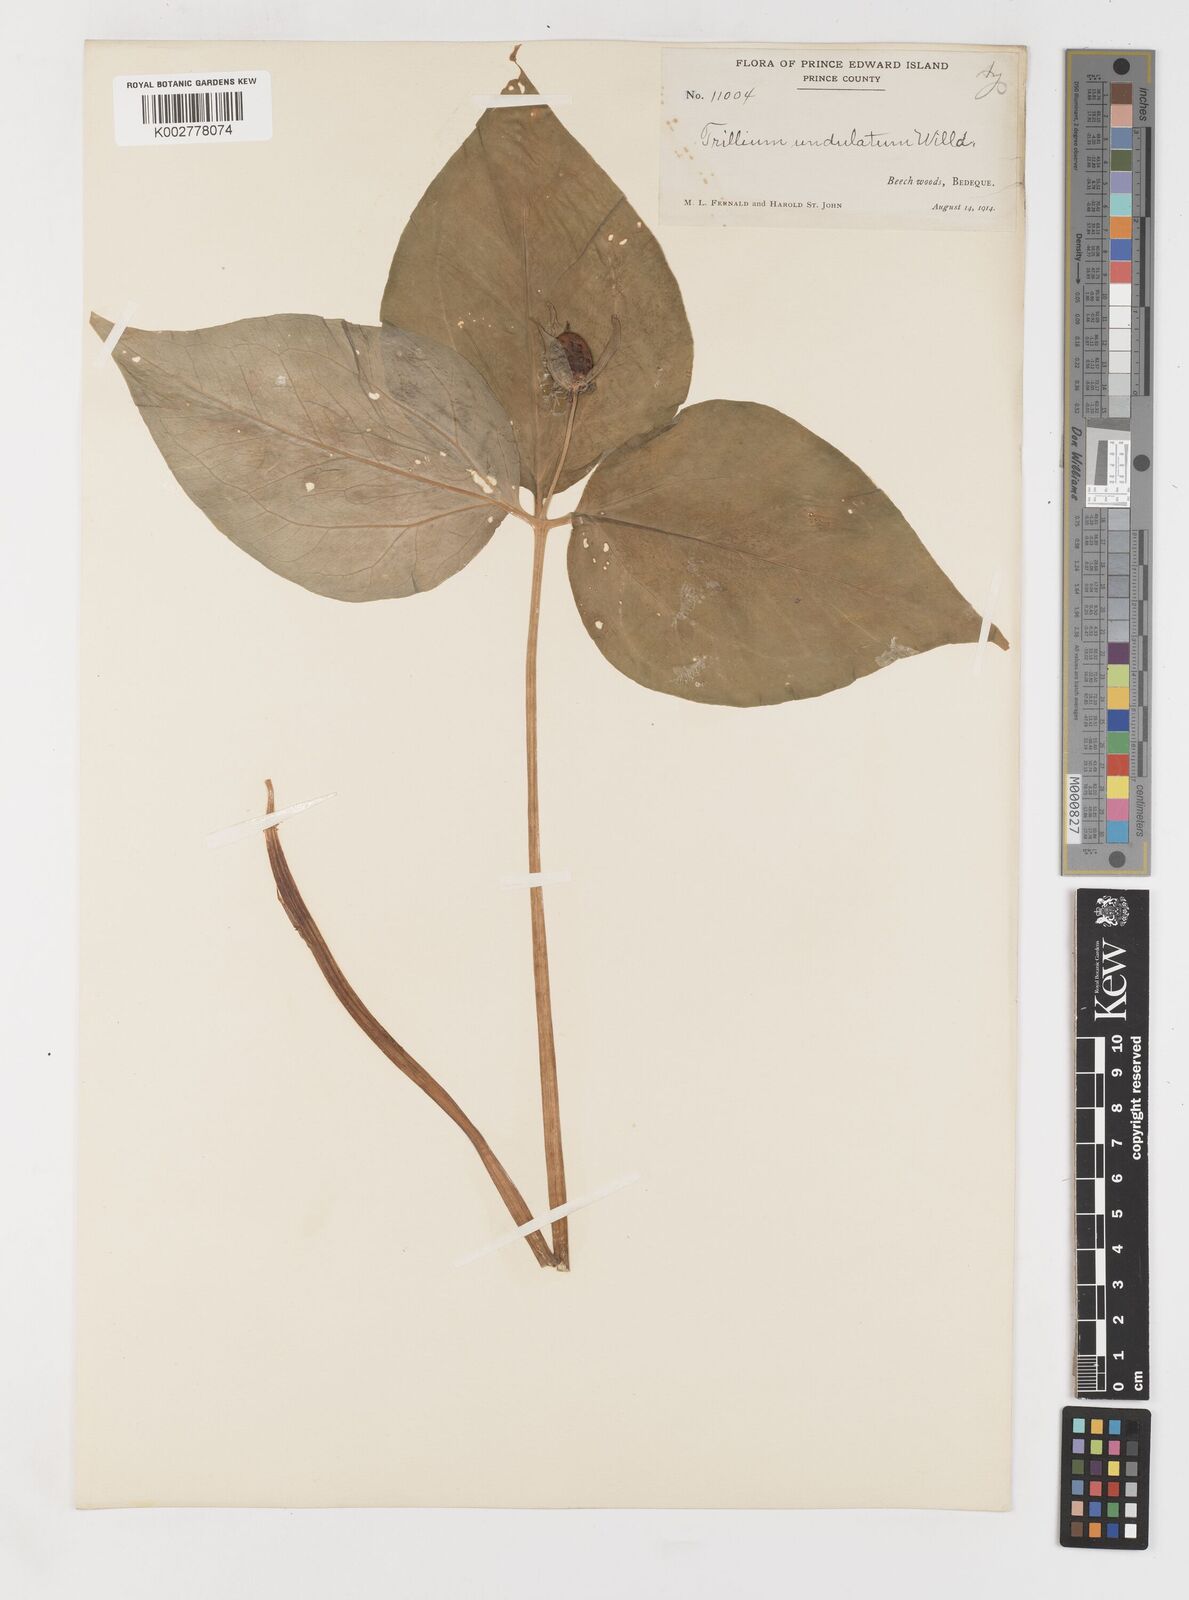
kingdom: Plantae
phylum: Tracheophyta
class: Liliopsida
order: Liliales
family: Melanthiaceae
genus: Trillium
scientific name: Trillium undulatum
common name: Paint trillium
